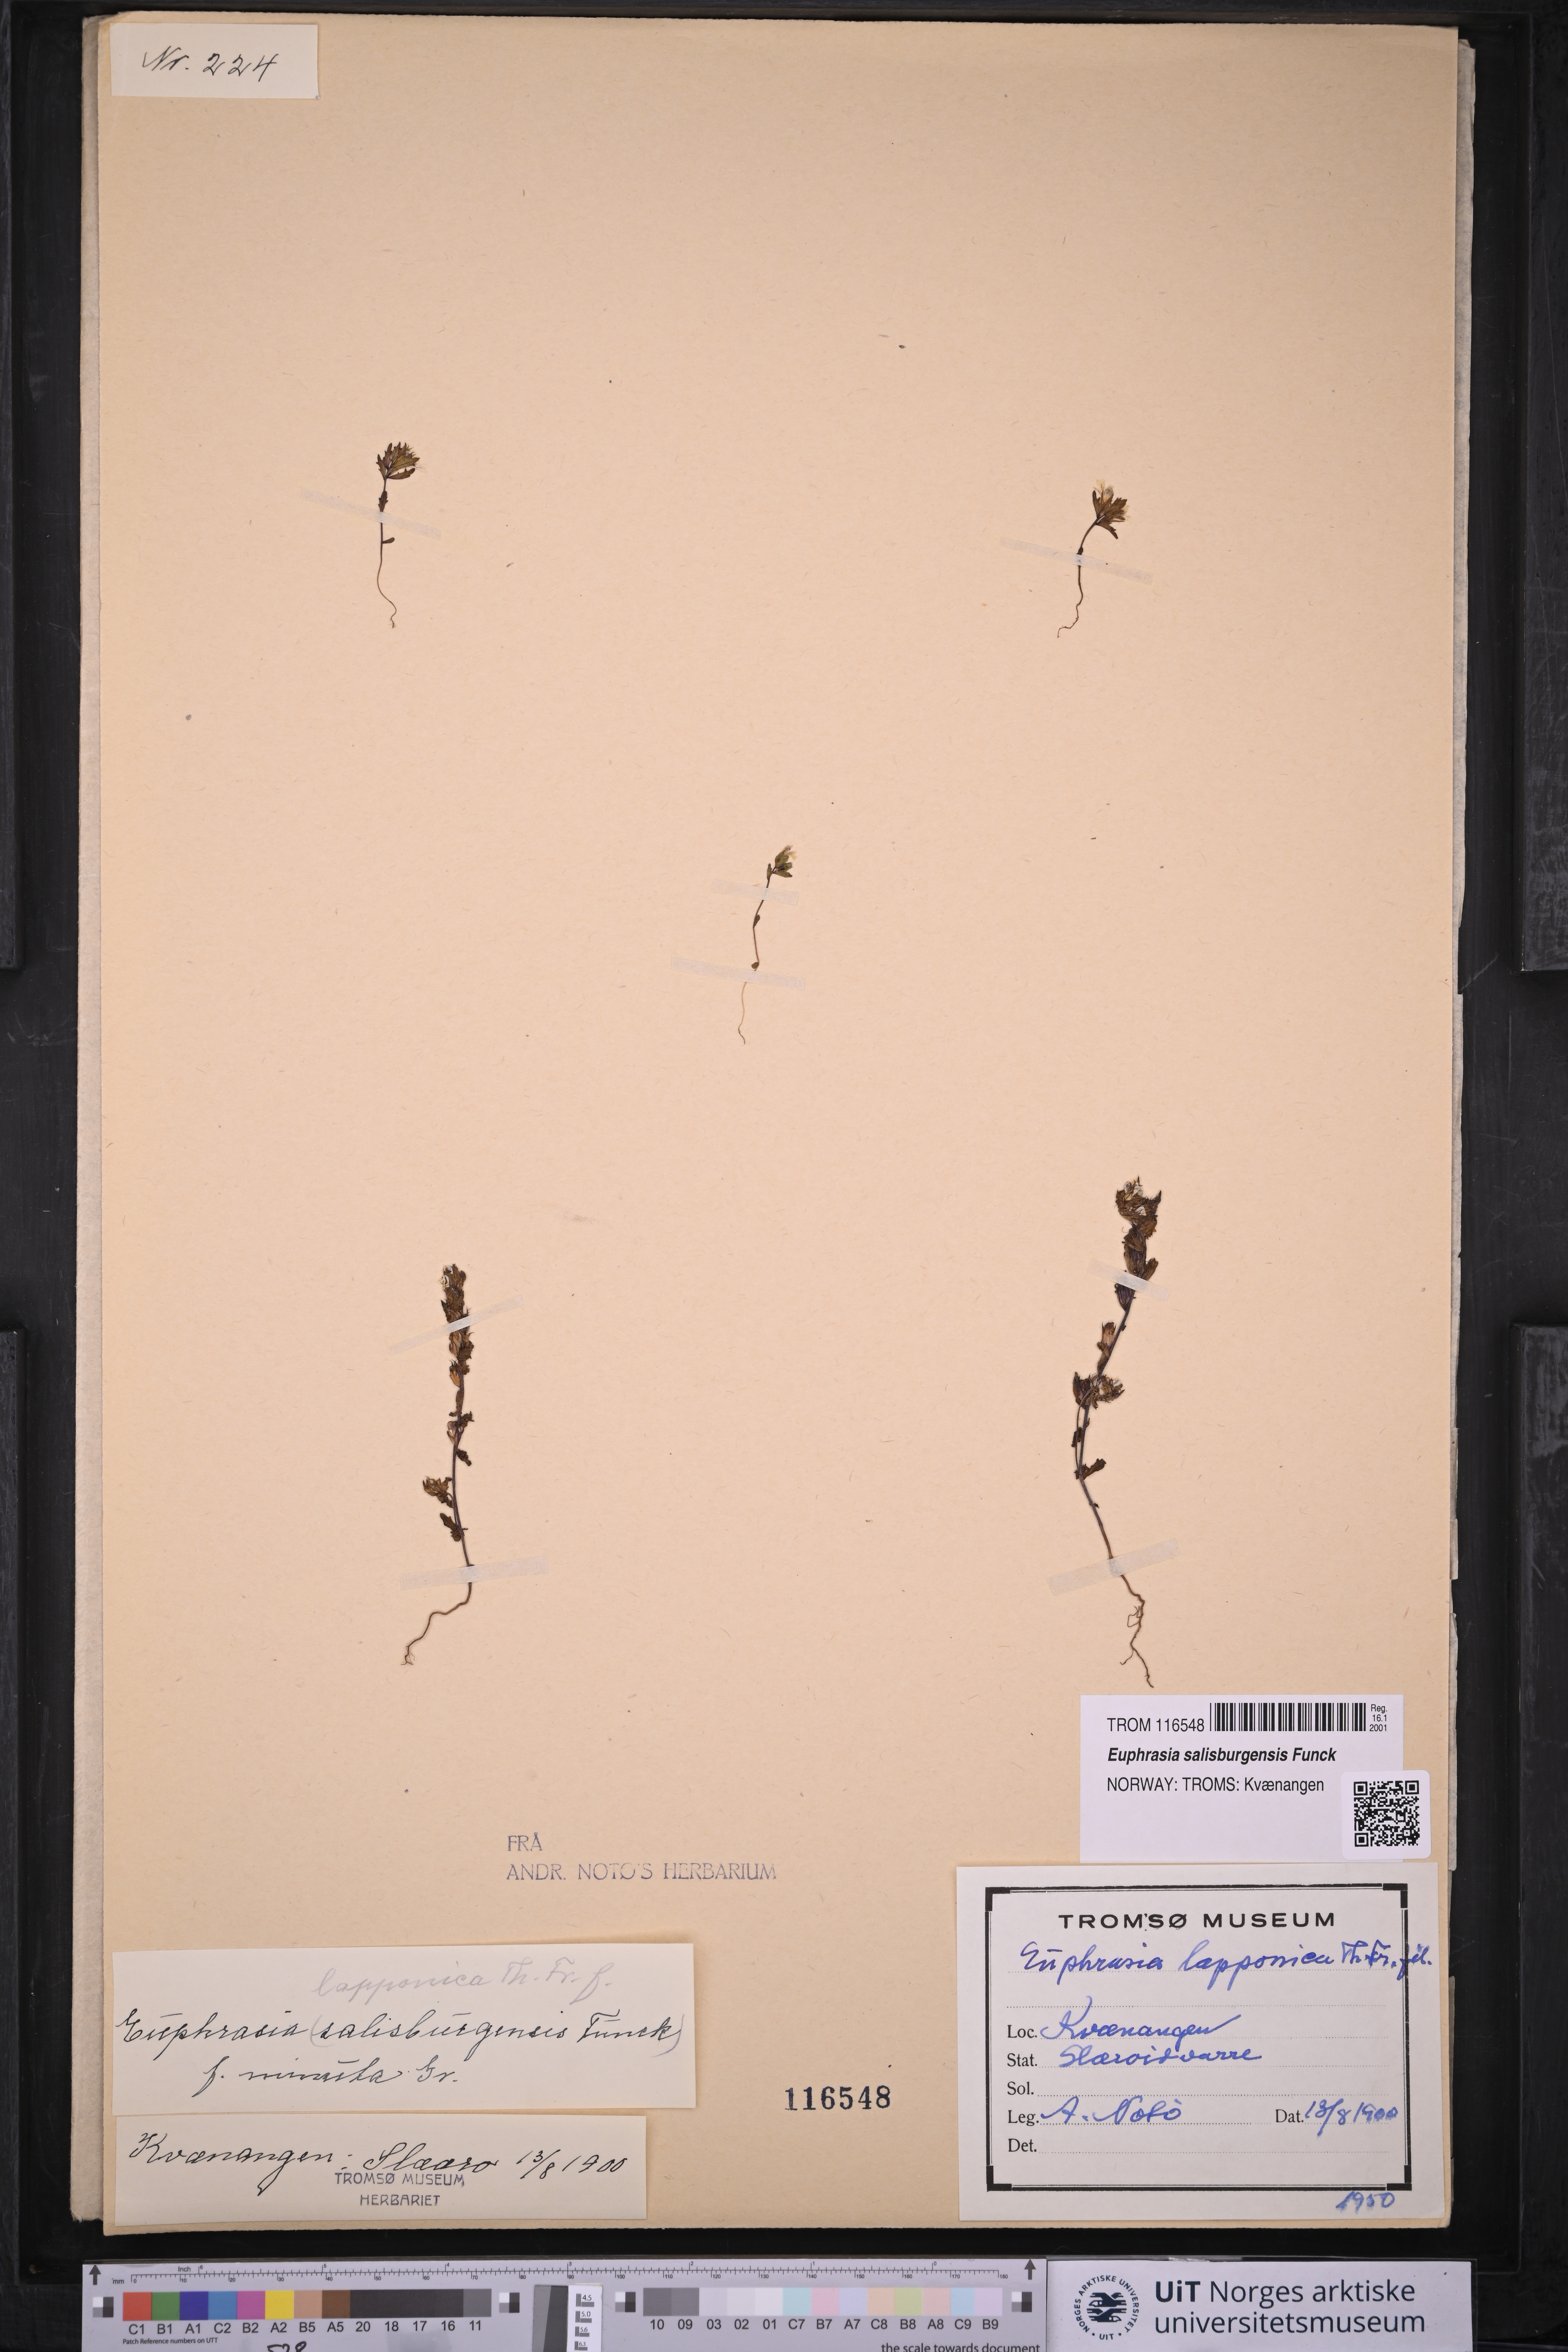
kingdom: Plantae
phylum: Tracheophyta
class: Magnoliopsida
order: Lamiales
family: Orobanchaceae
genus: Euphrasia
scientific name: Euphrasia salisburgensis
